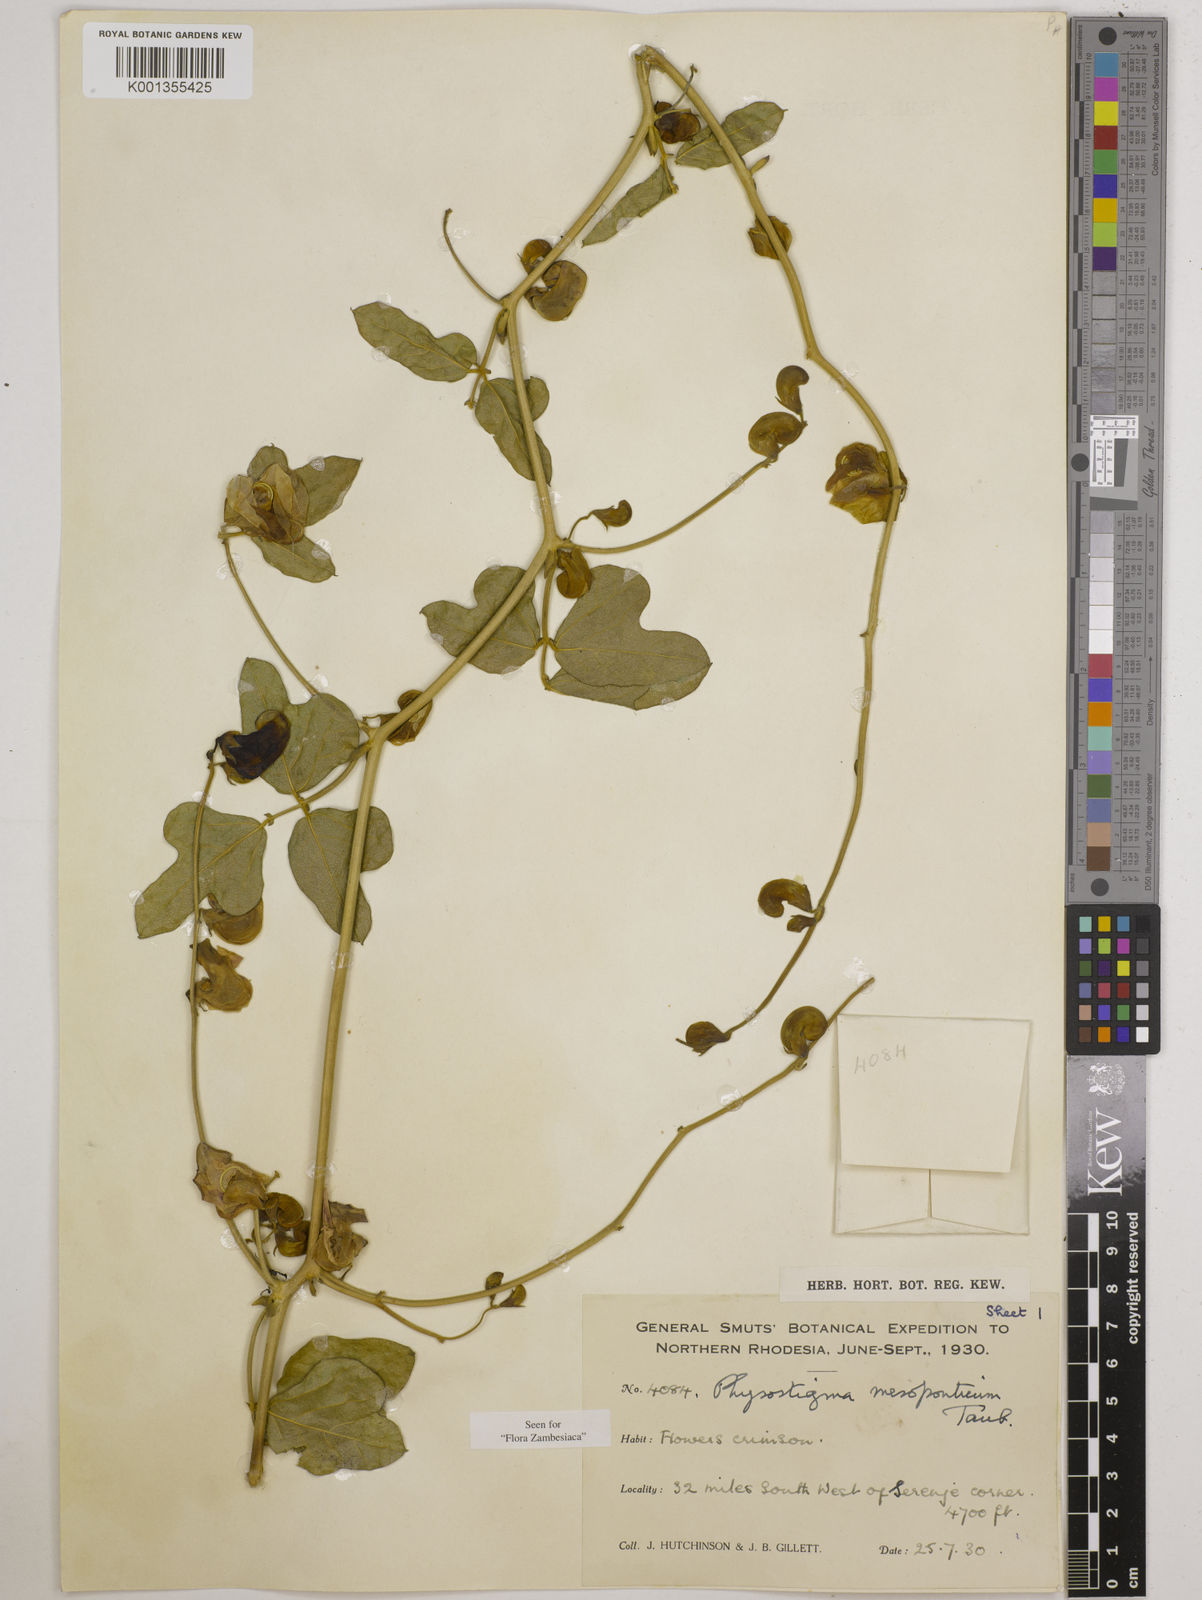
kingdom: Plantae
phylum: Tracheophyta
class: Magnoliopsida
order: Fabales
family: Fabaceae
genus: Physostigma
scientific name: Physostigma mesoponticum
